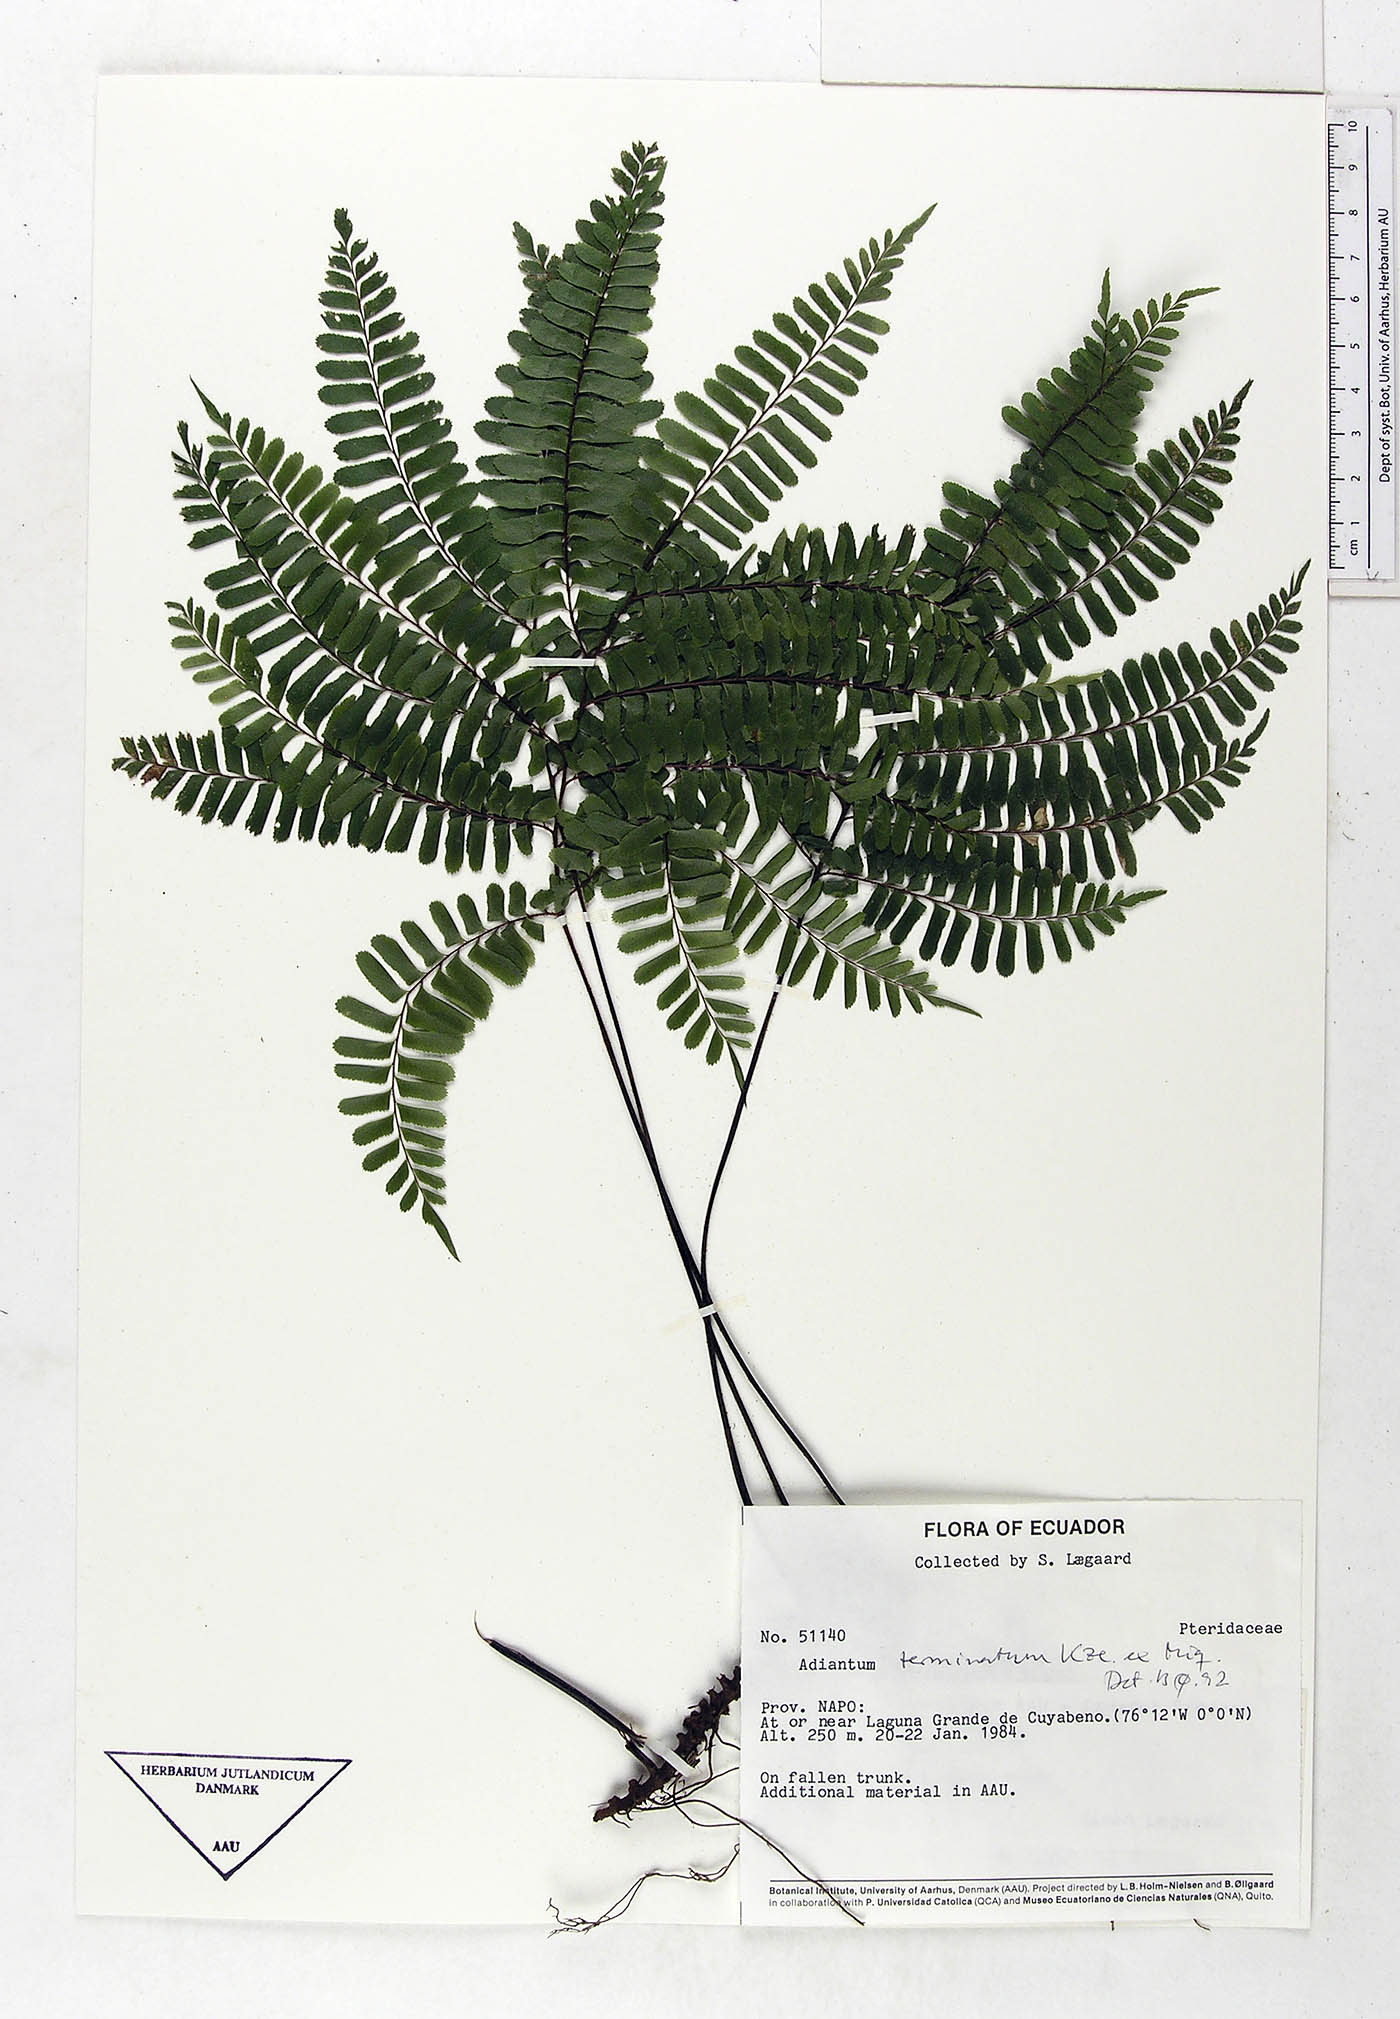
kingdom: Plantae
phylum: Tracheophyta
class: Polypodiopsida
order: Polypodiales
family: Pteridaceae
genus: Adiantum
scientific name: Adiantum terminatum
